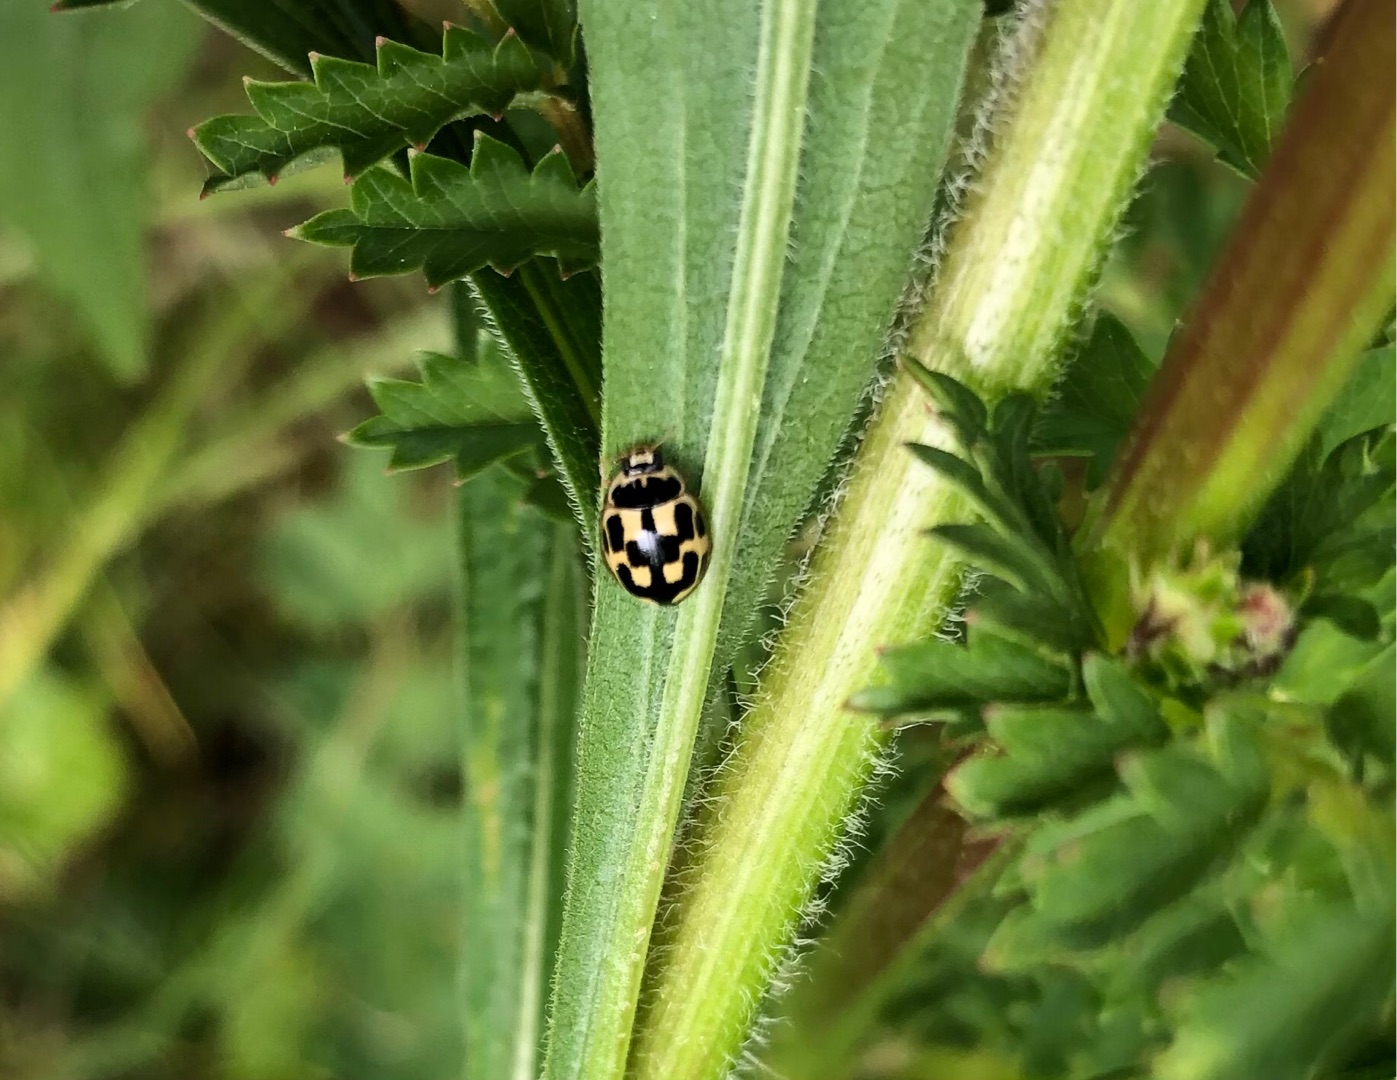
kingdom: Animalia
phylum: Arthropoda
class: Insecta
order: Coleoptera
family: Coccinellidae
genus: Propylaea
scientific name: Propylaea quatuordecimpunctata
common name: Skakbræt
